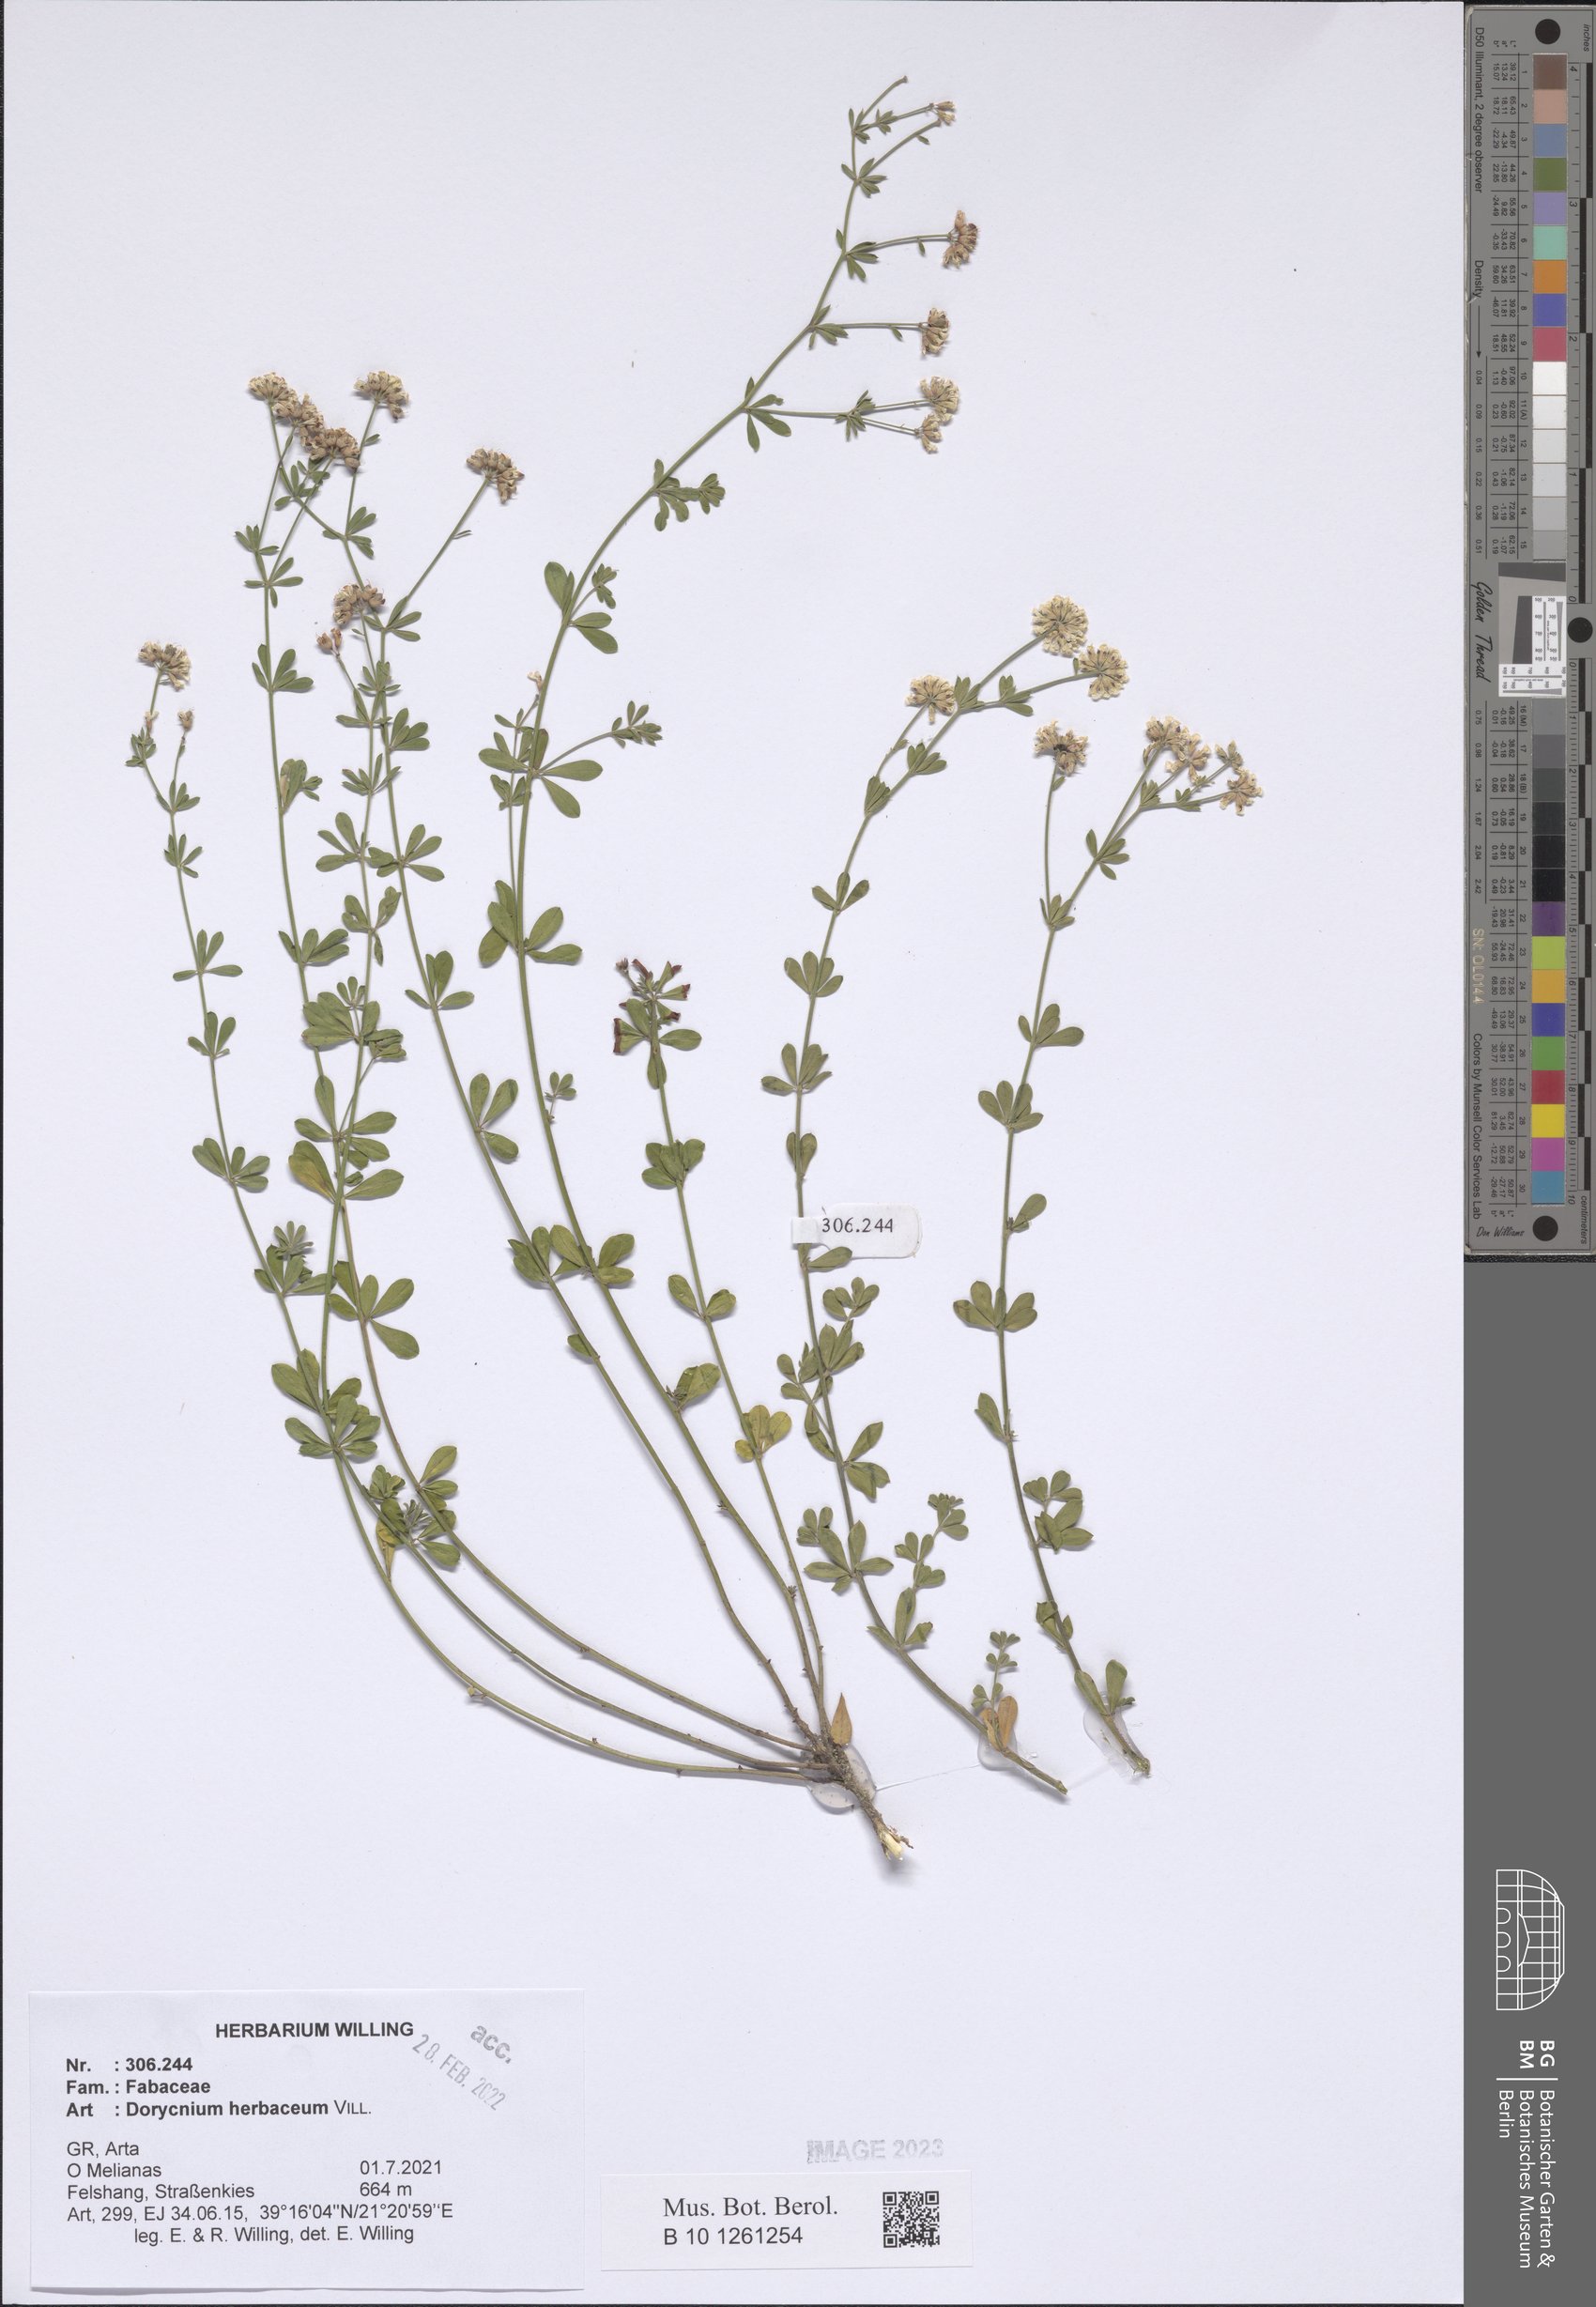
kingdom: Plantae
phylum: Tracheophyta
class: Magnoliopsida
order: Fabales
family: Fabaceae
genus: Lotus
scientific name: Lotus herbaceus
